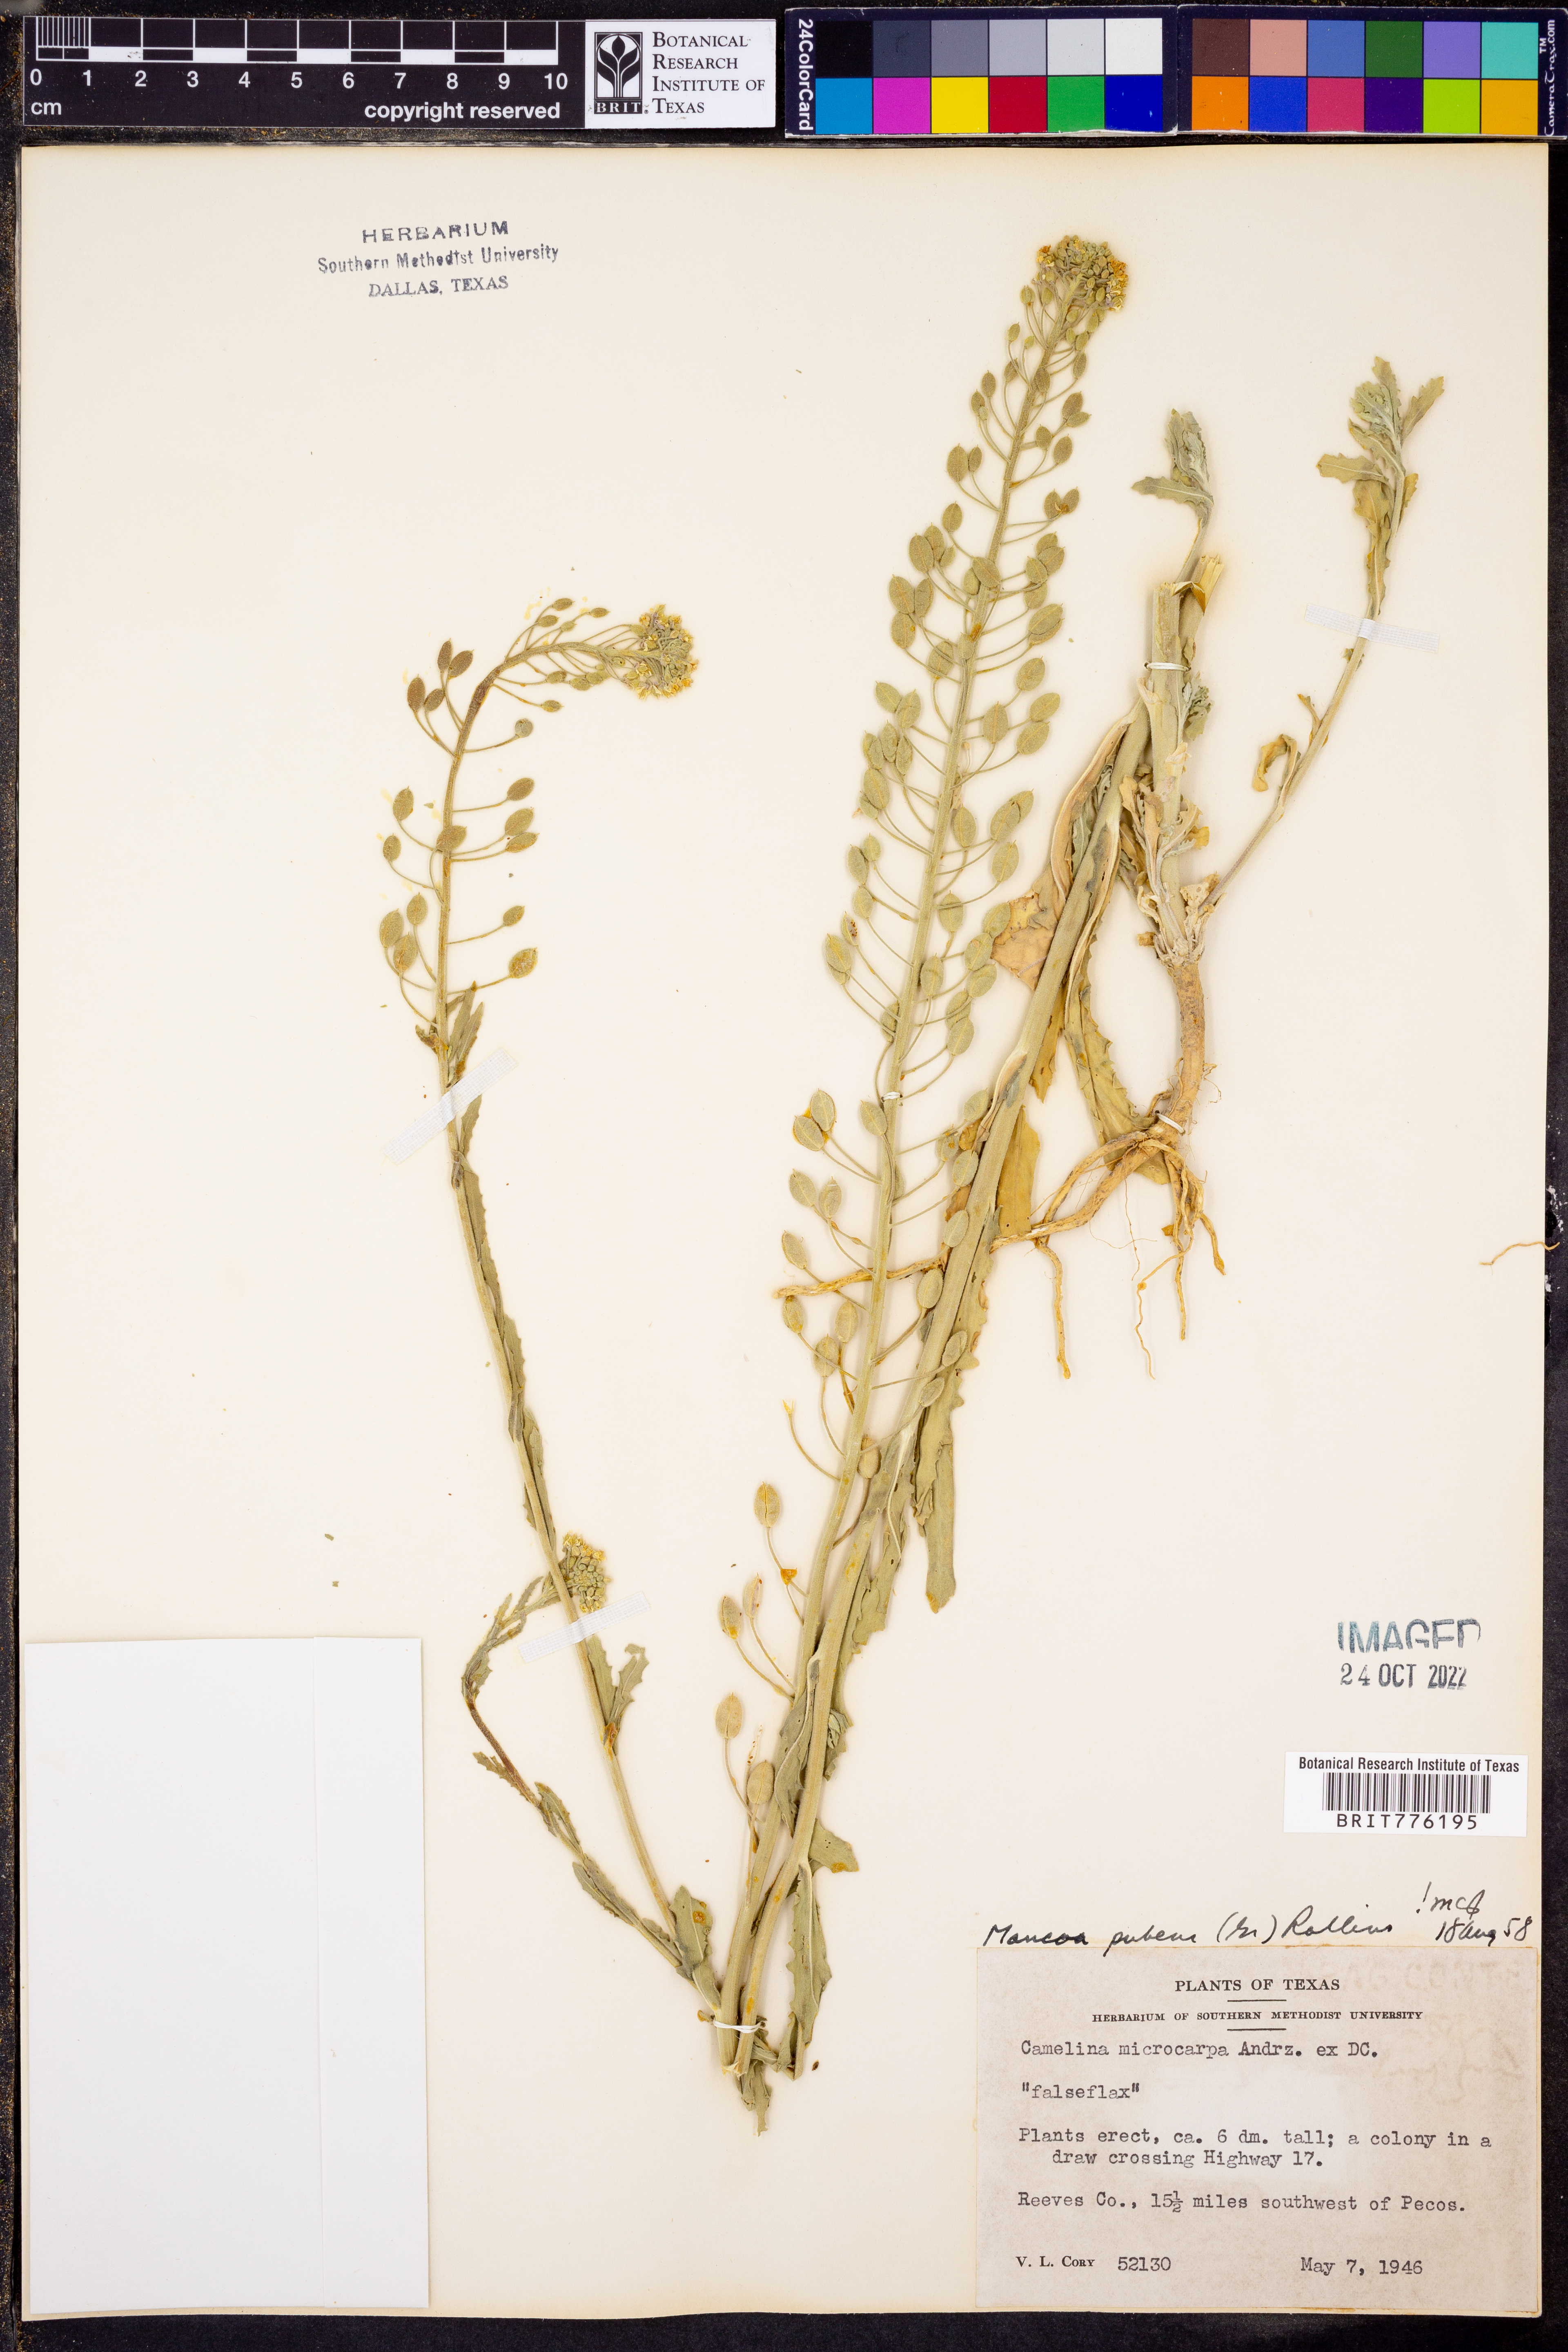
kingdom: Plantae
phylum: Tracheophyta
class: Magnoliopsida
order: Brassicales
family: Brassicaceae
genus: Halimolobos
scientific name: Halimolobos pubens
